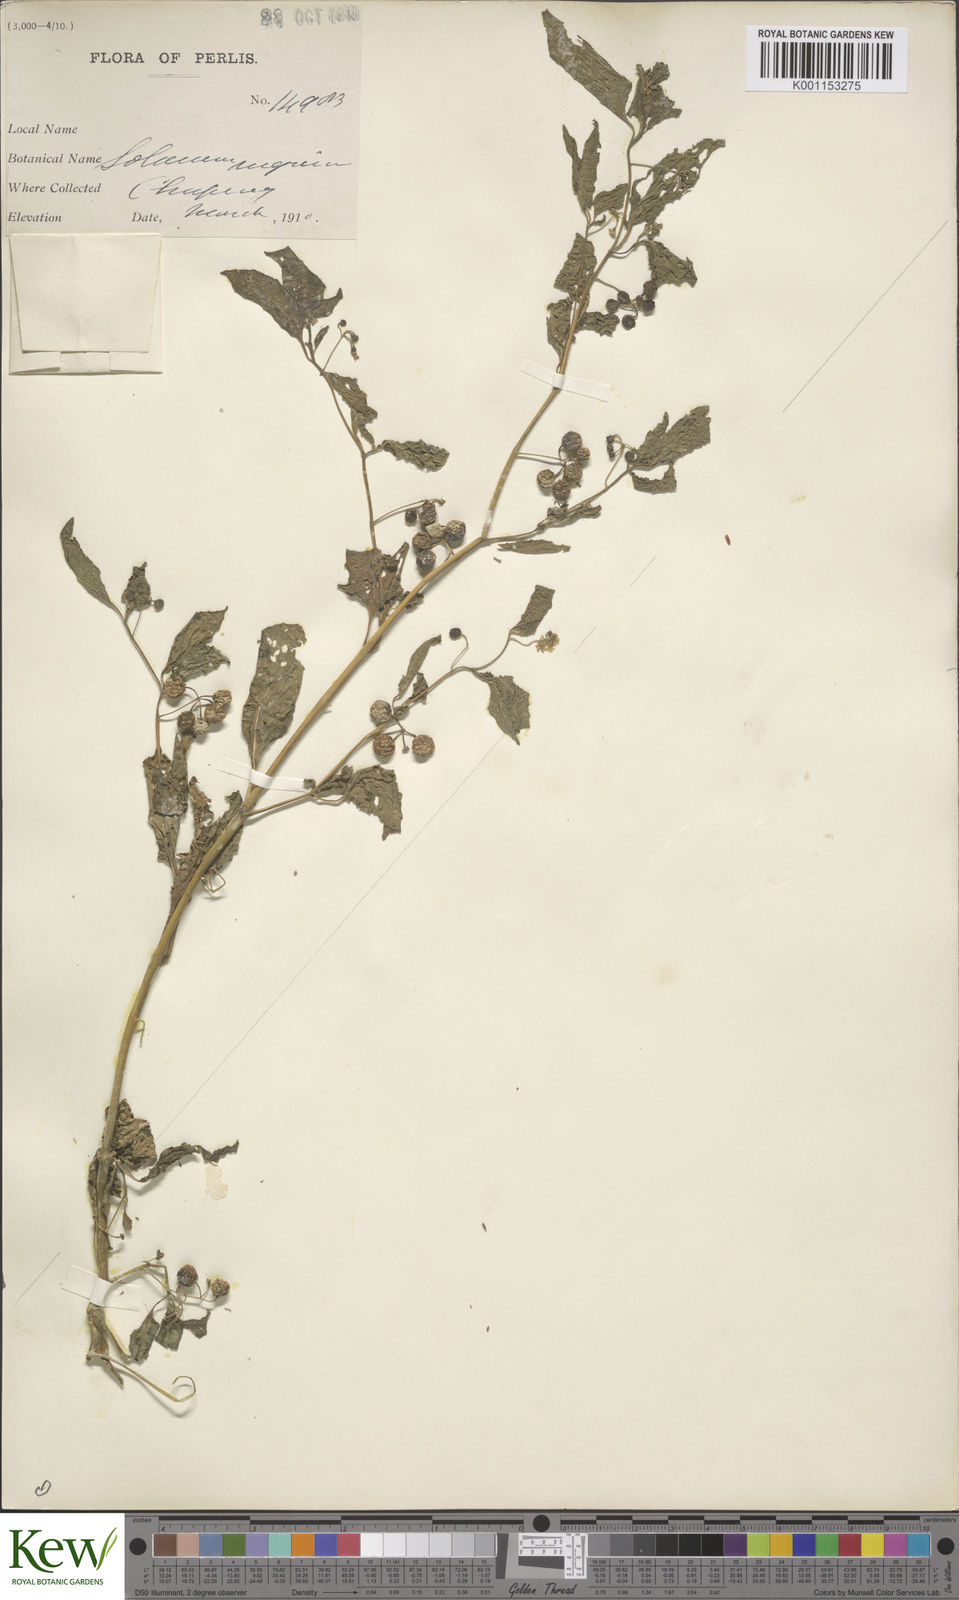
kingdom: Plantae
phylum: Tracheophyta
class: Magnoliopsida
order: Solanales
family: Solanaceae
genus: Solanum
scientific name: Solanum americanum
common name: American black nightshade
